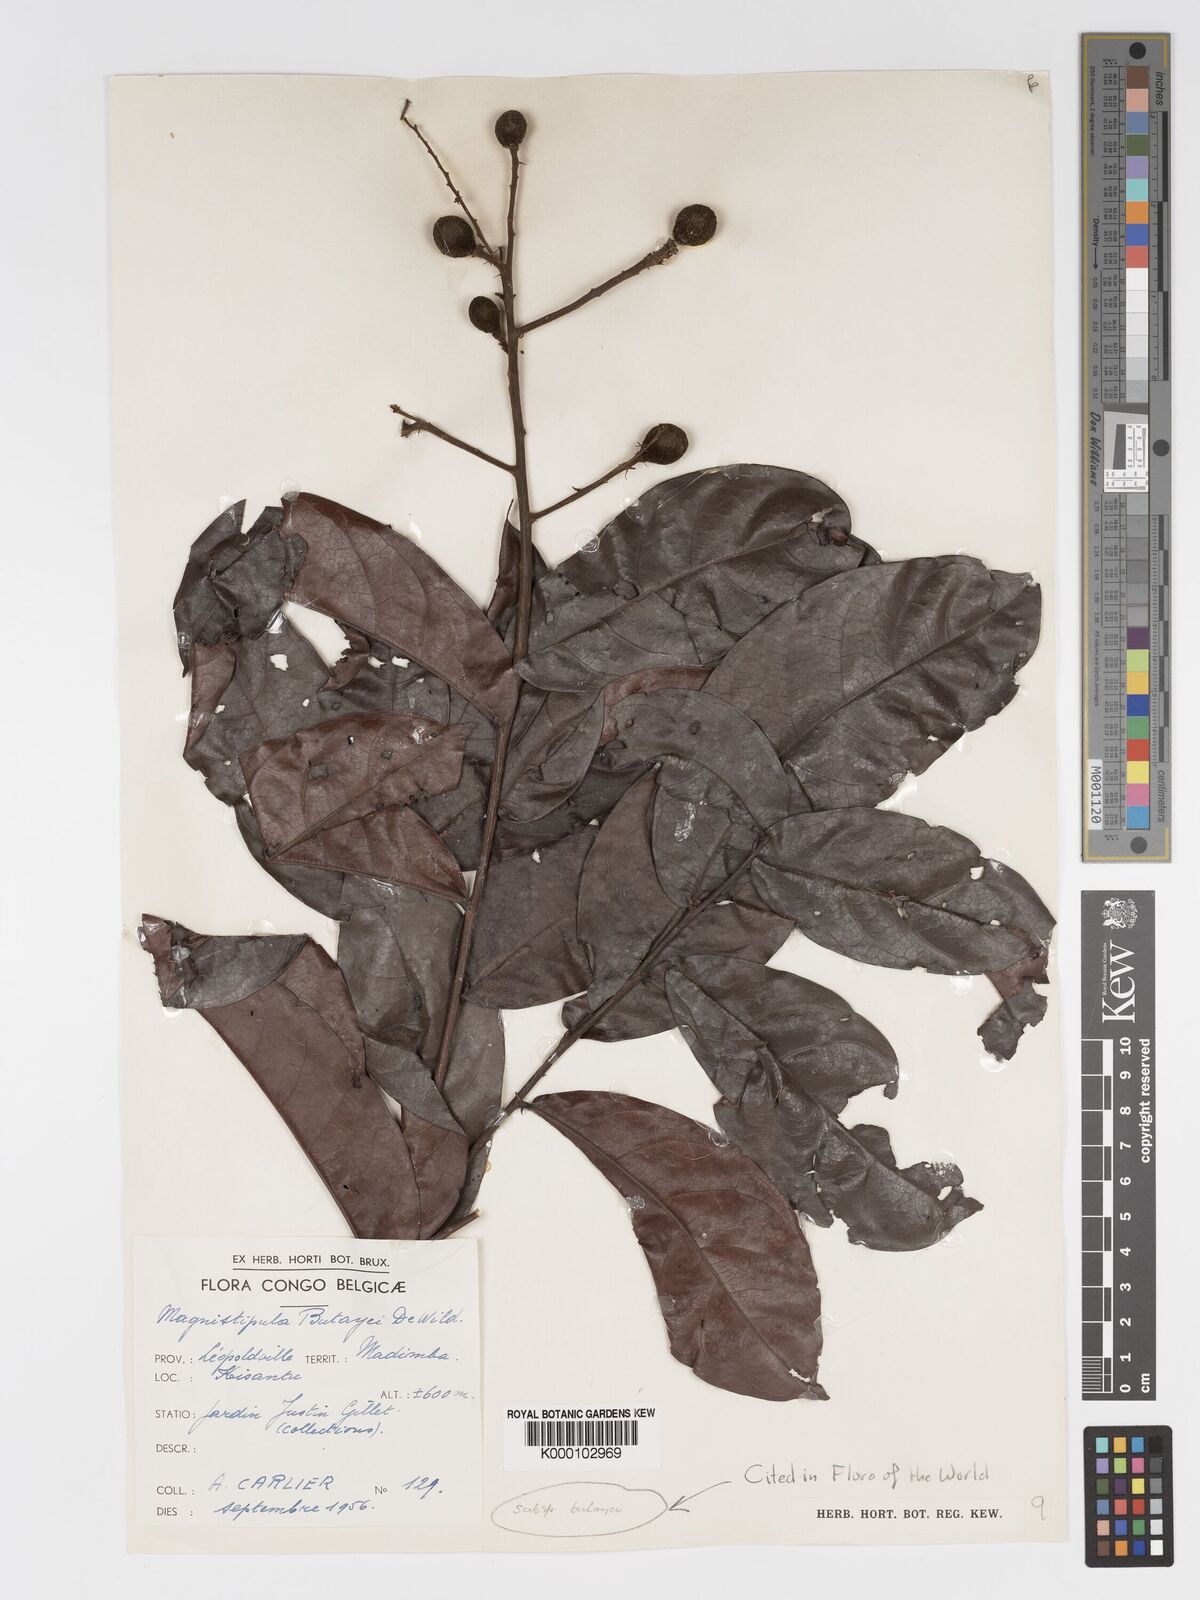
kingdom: Plantae
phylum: Tracheophyta
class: Magnoliopsida
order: Malpighiales
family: Chrysobalanaceae
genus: Magnistipula
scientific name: Magnistipula butayei
